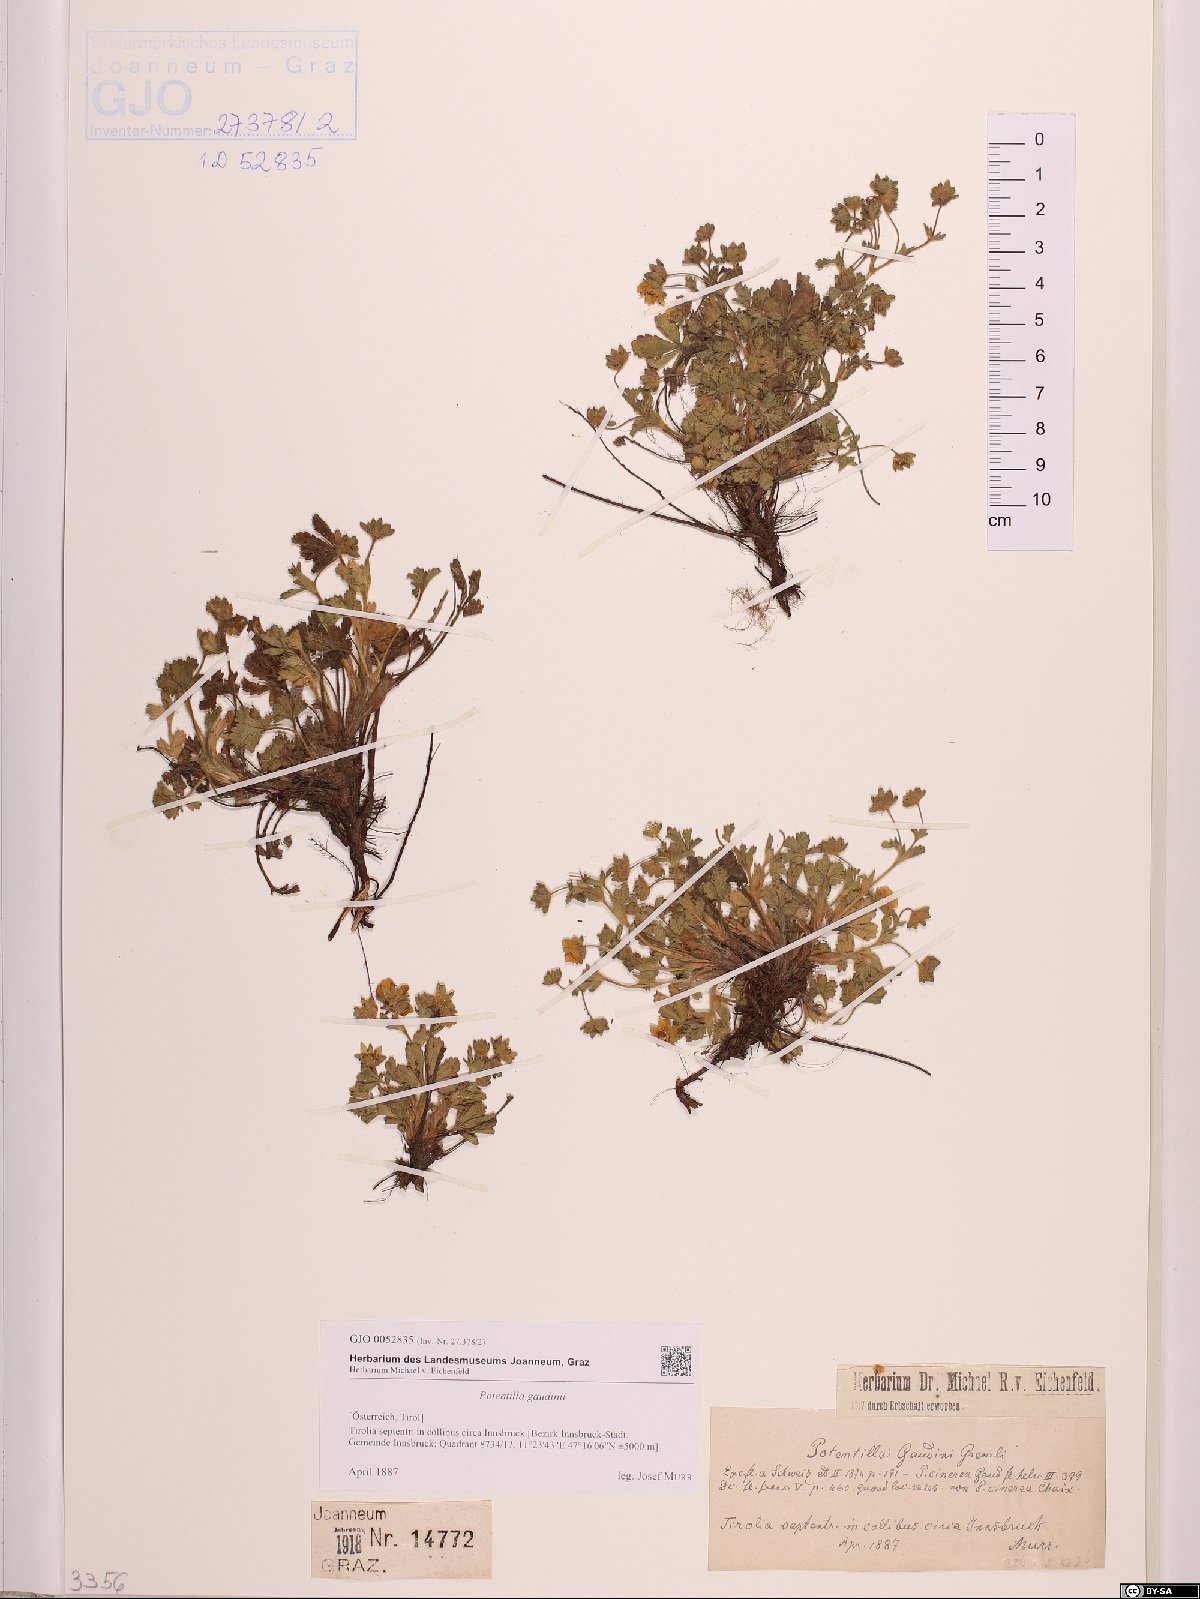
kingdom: Plantae
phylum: Tracheophyta
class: Magnoliopsida
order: Rosales
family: Rosaceae
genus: Potentilla
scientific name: Potentilla pusilla
